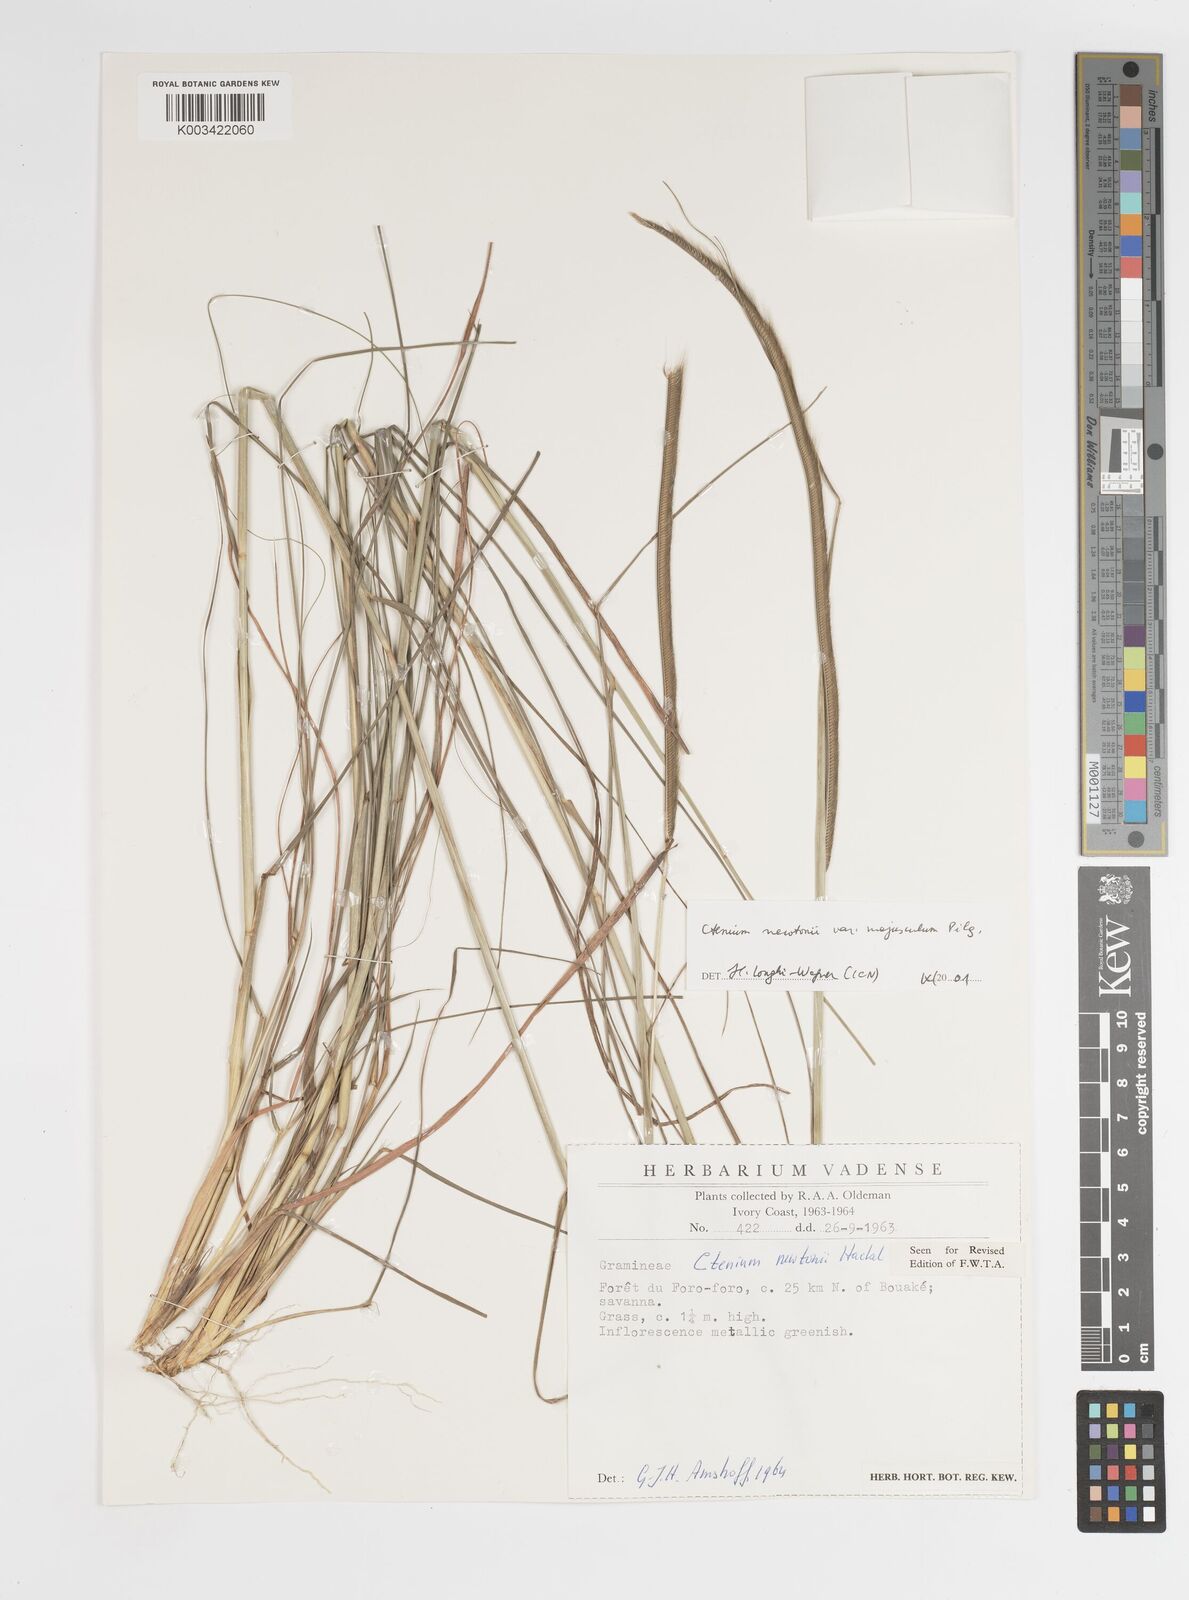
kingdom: Plantae
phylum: Tracheophyta
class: Liliopsida
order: Poales
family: Poaceae
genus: Ctenium
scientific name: Ctenium newtonii
